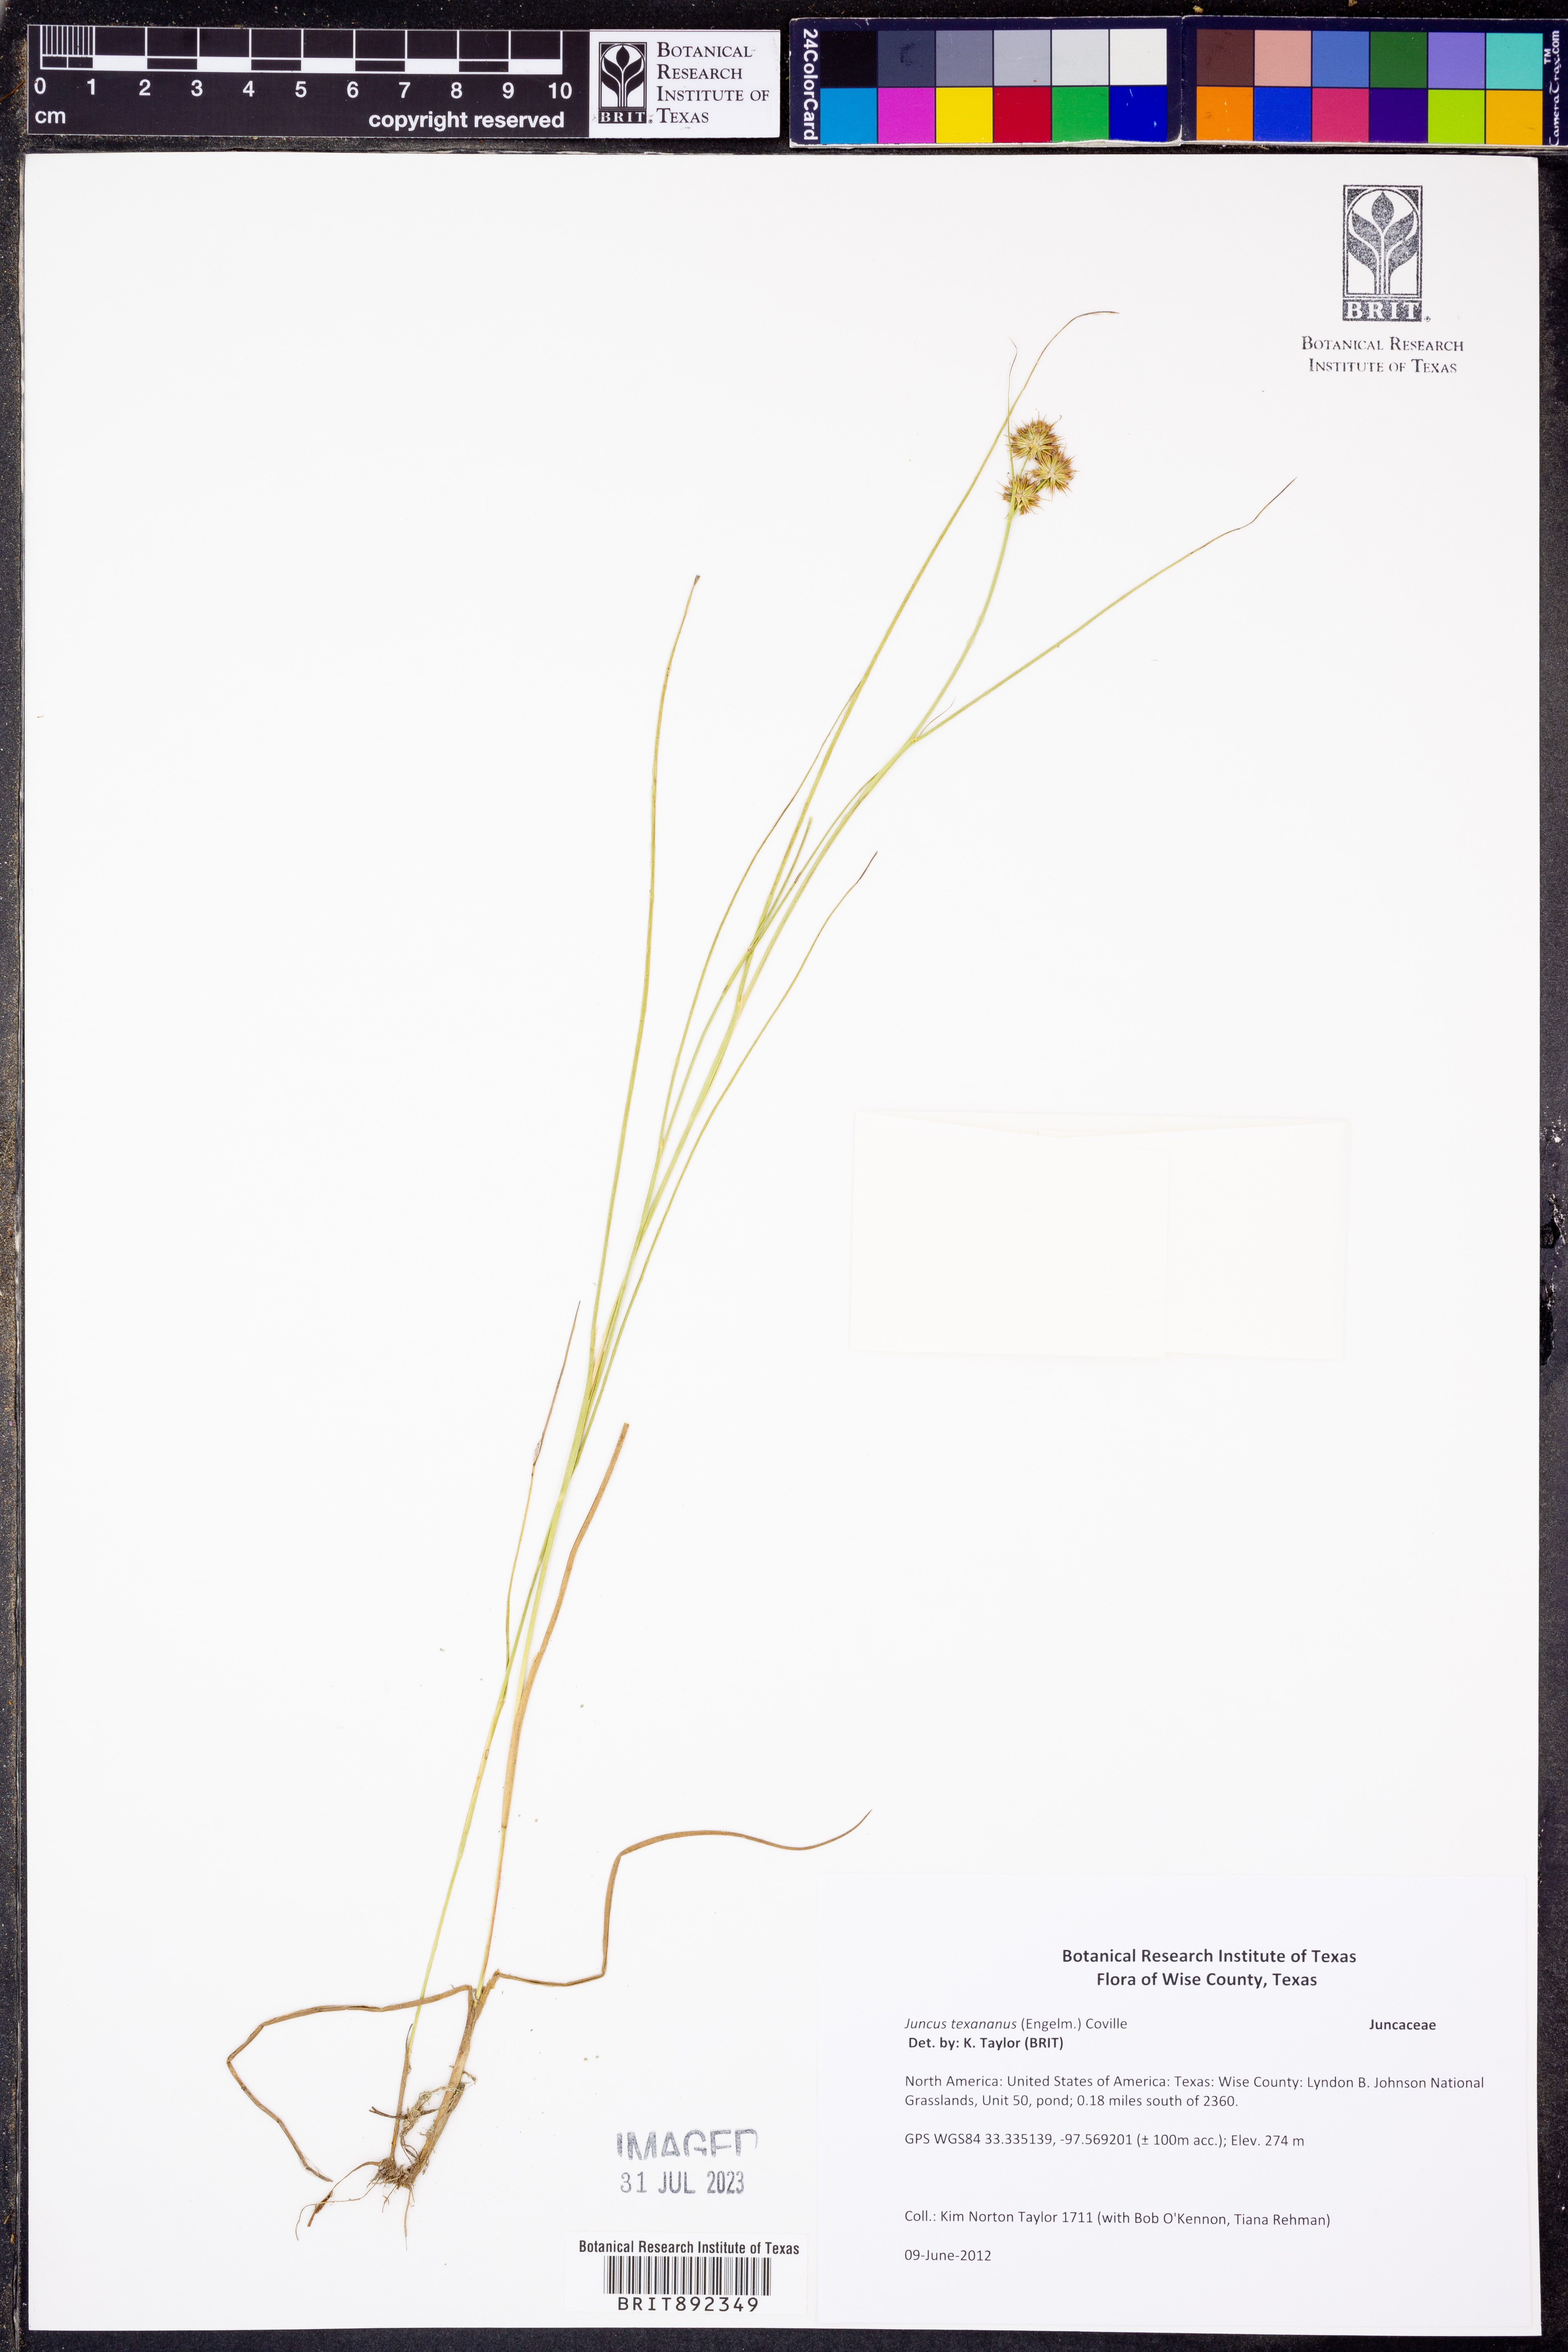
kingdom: Plantae
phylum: Tracheophyta
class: Liliopsida
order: Poales
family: Juncaceae
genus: Juncus
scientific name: Juncus texanus
